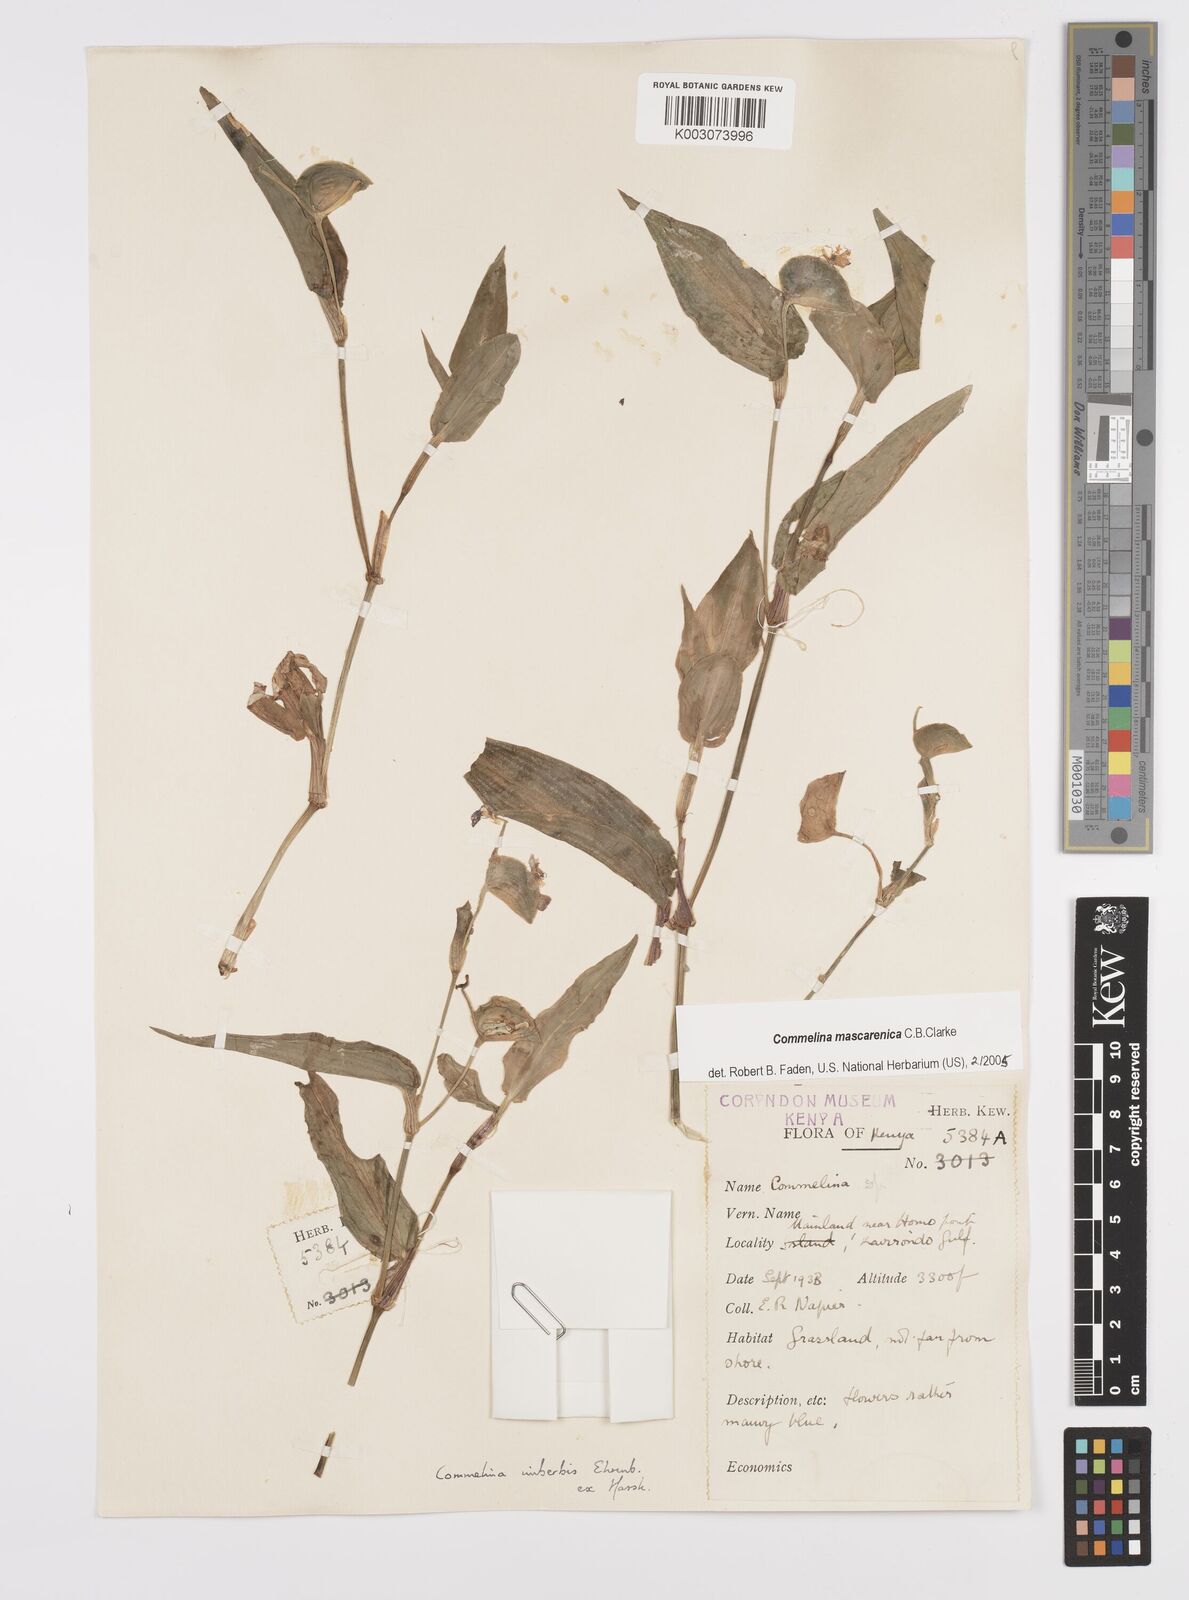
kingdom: Plantae
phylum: Tracheophyta
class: Liliopsida
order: Commelinales
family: Commelinaceae
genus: Commelina
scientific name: Commelina mascarenica
